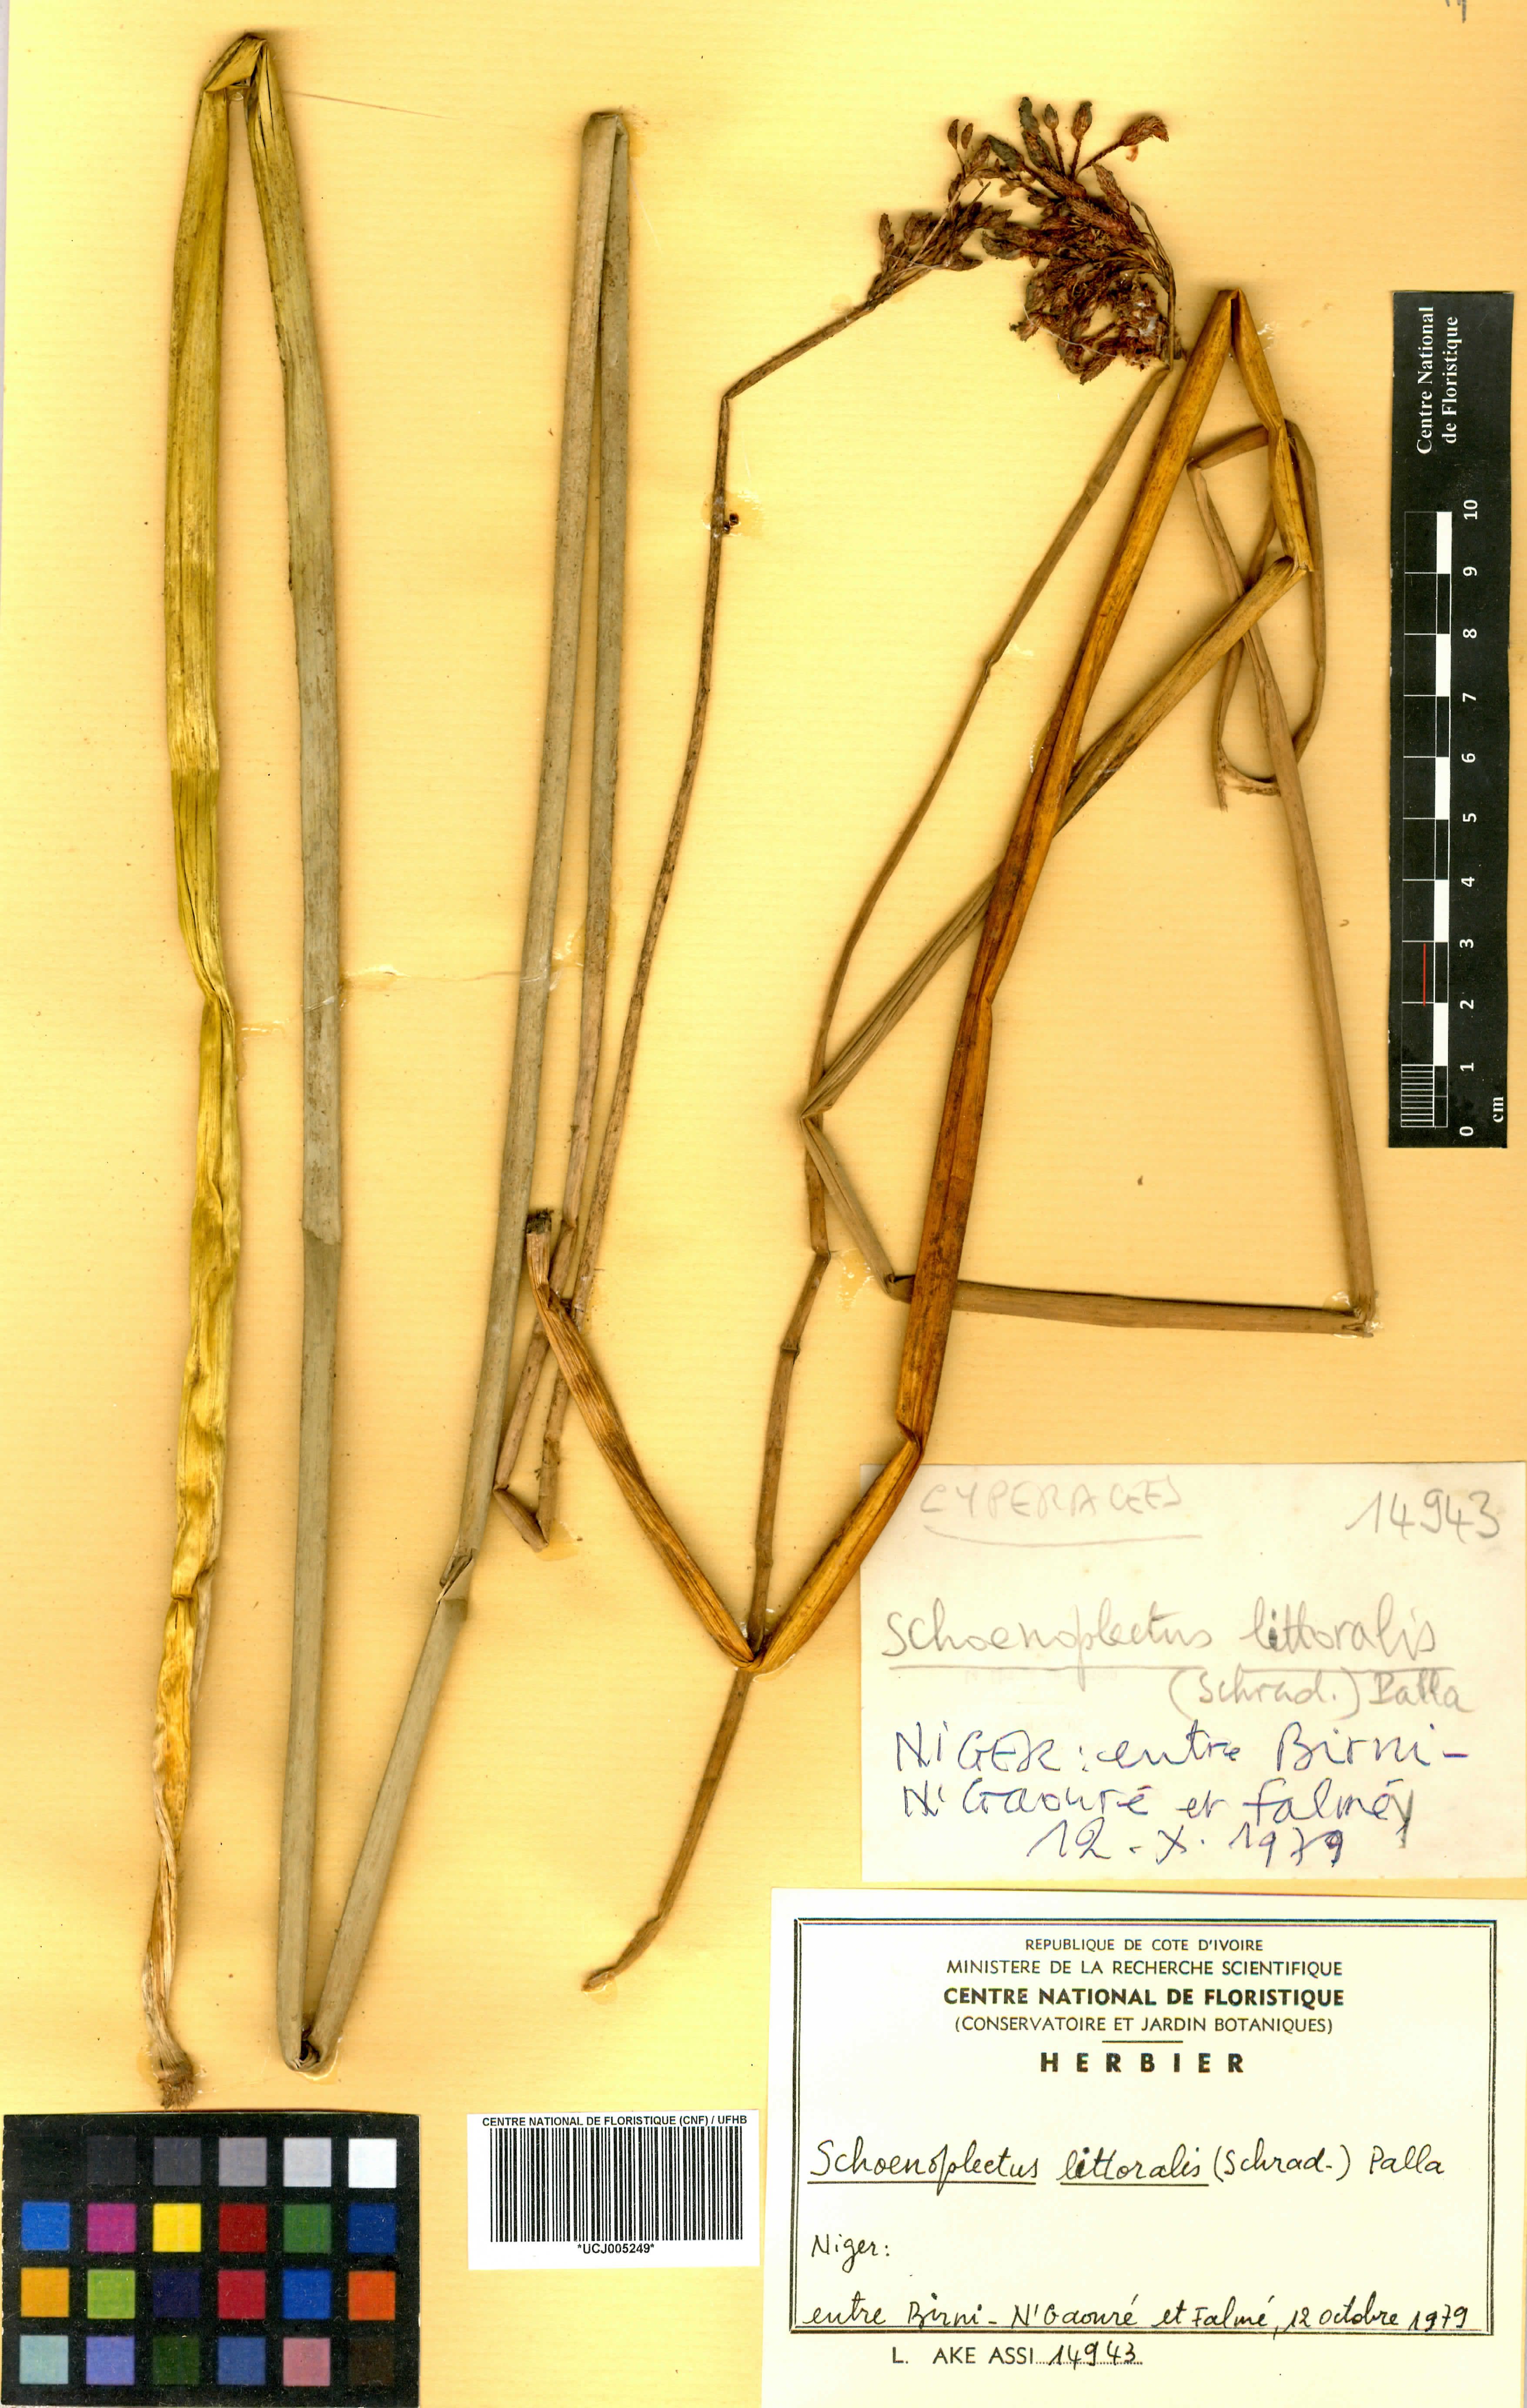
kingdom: Plantae
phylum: Tracheophyta
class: Liliopsida
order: Poales
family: Cyperaceae
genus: Schoenoplectus
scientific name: Schoenoplectus litoralis
